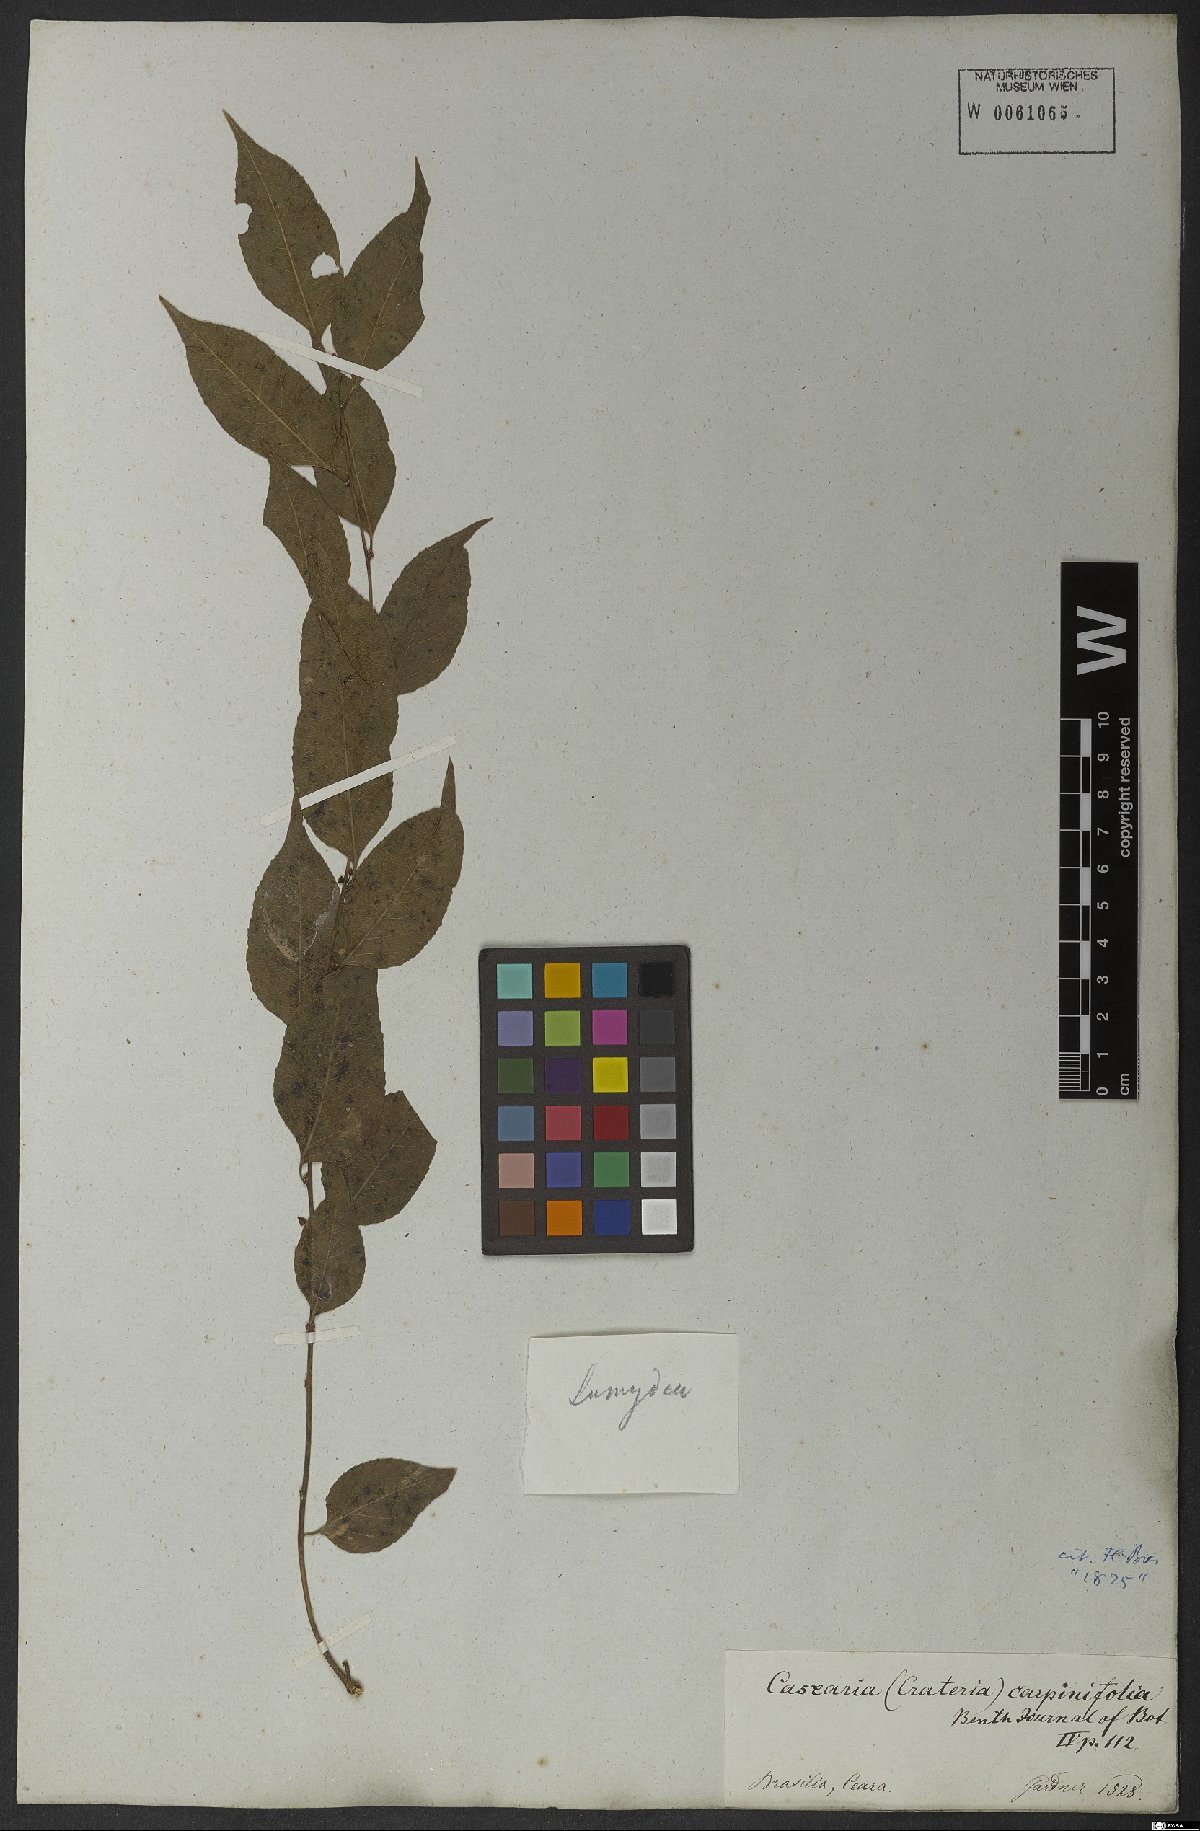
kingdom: Plantae
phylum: Tracheophyta
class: Magnoliopsida
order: Malpighiales
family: Salicaceae
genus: Casearia
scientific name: Casearia sylvestris
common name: Wild sage
